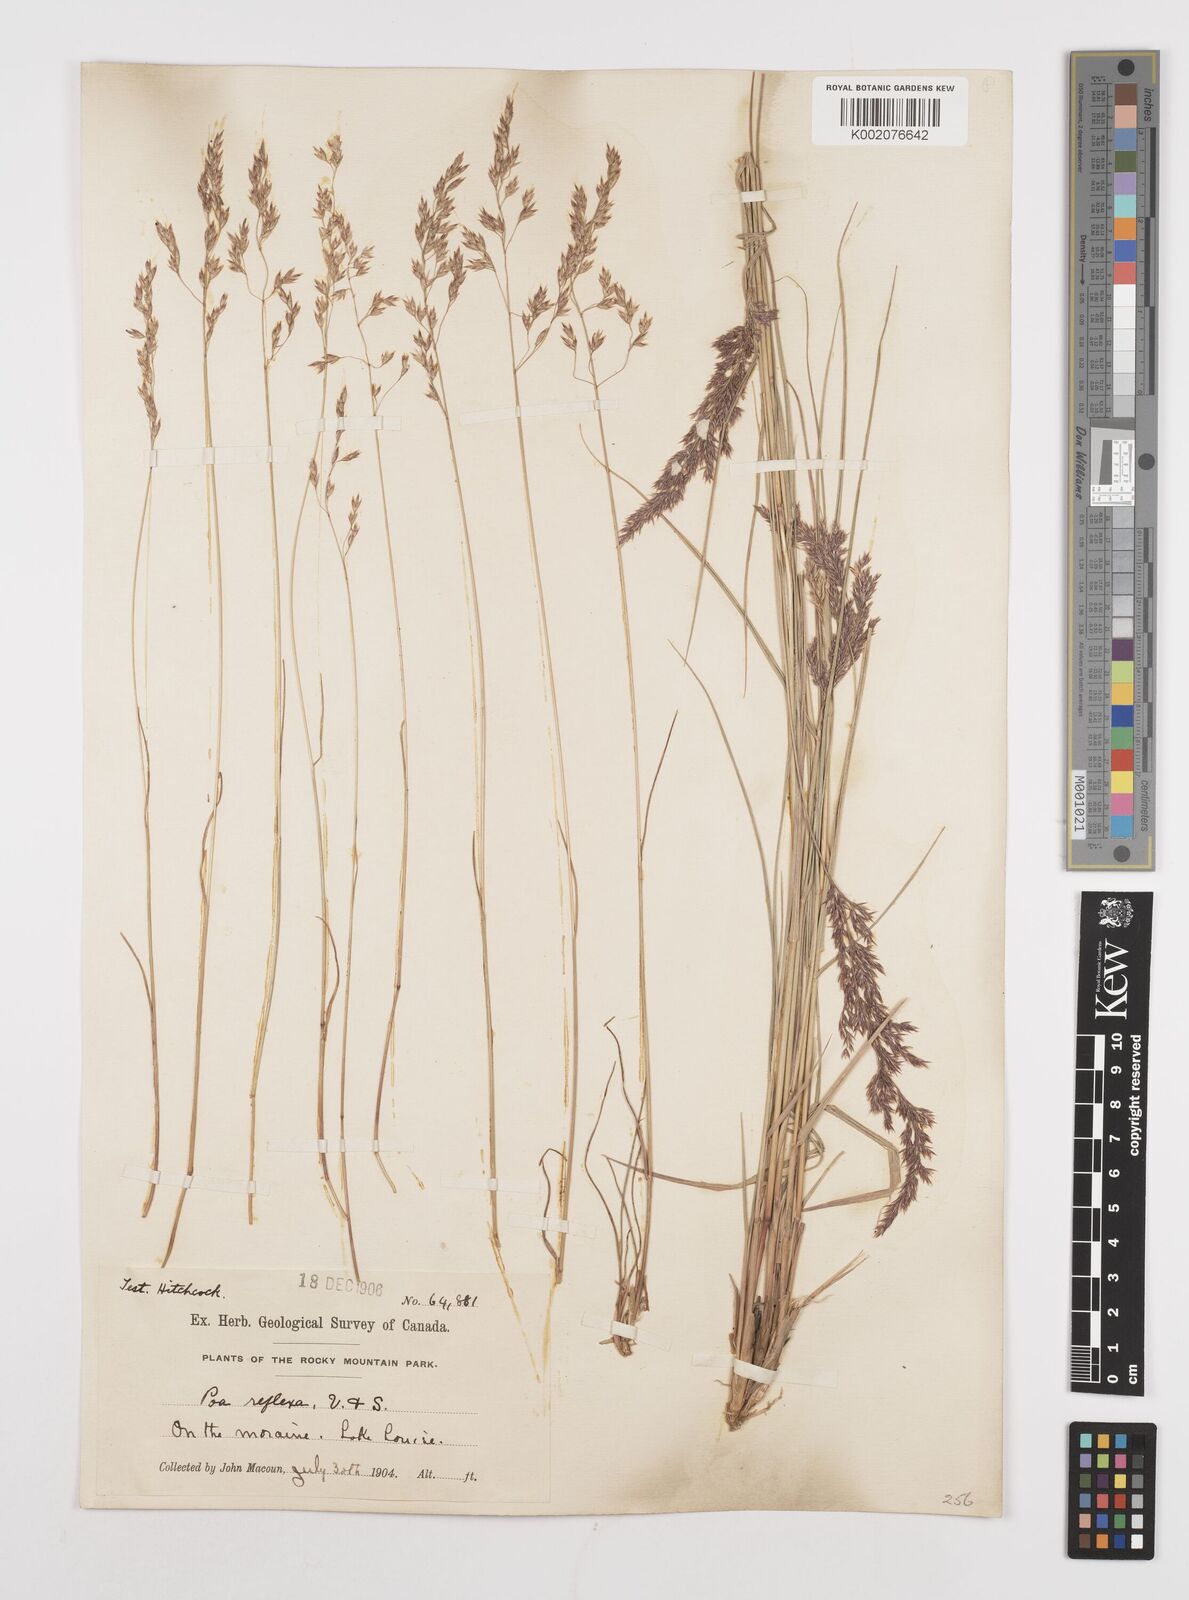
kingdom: Plantae
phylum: Tracheophyta
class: Liliopsida
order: Poales
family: Poaceae
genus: Poa
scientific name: Poa reflexa
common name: Nodding bluegrass
